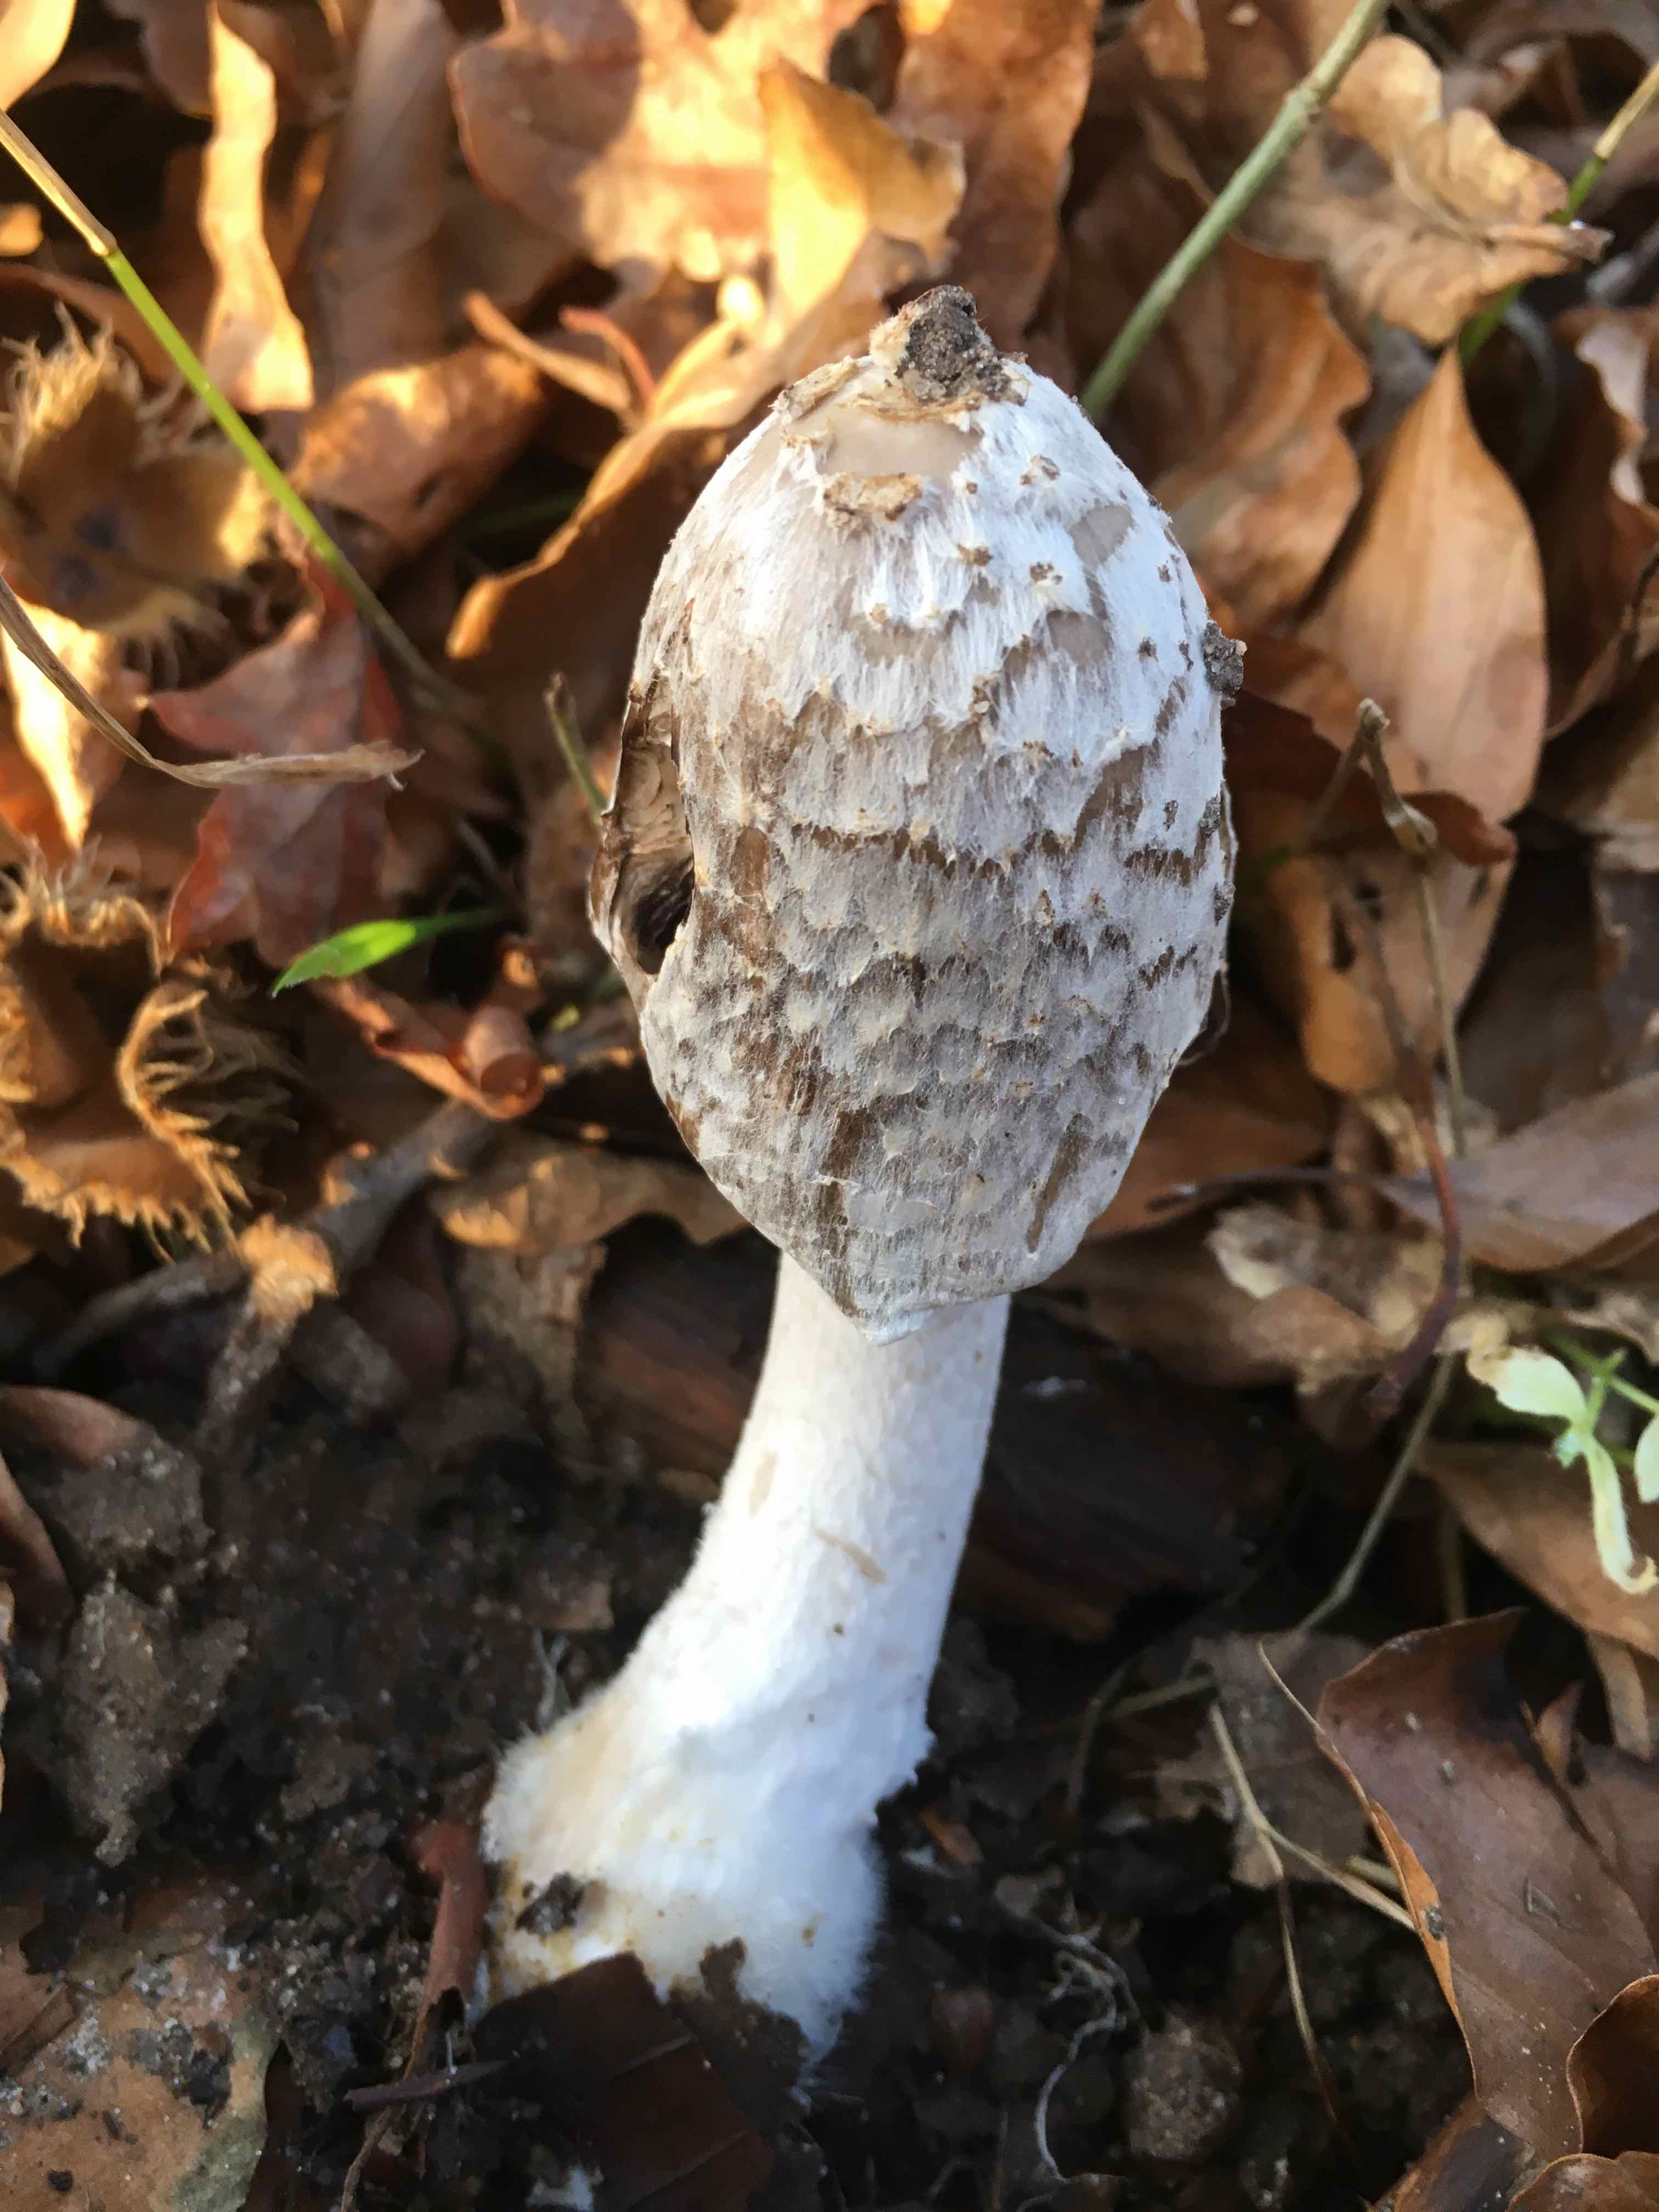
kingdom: Fungi
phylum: Basidiomycota
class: Agaricomycetes
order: Agaricales
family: Psathyrellaceae
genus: Coprinopsis
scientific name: Coprinopsis picacea
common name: skade-blækhat
